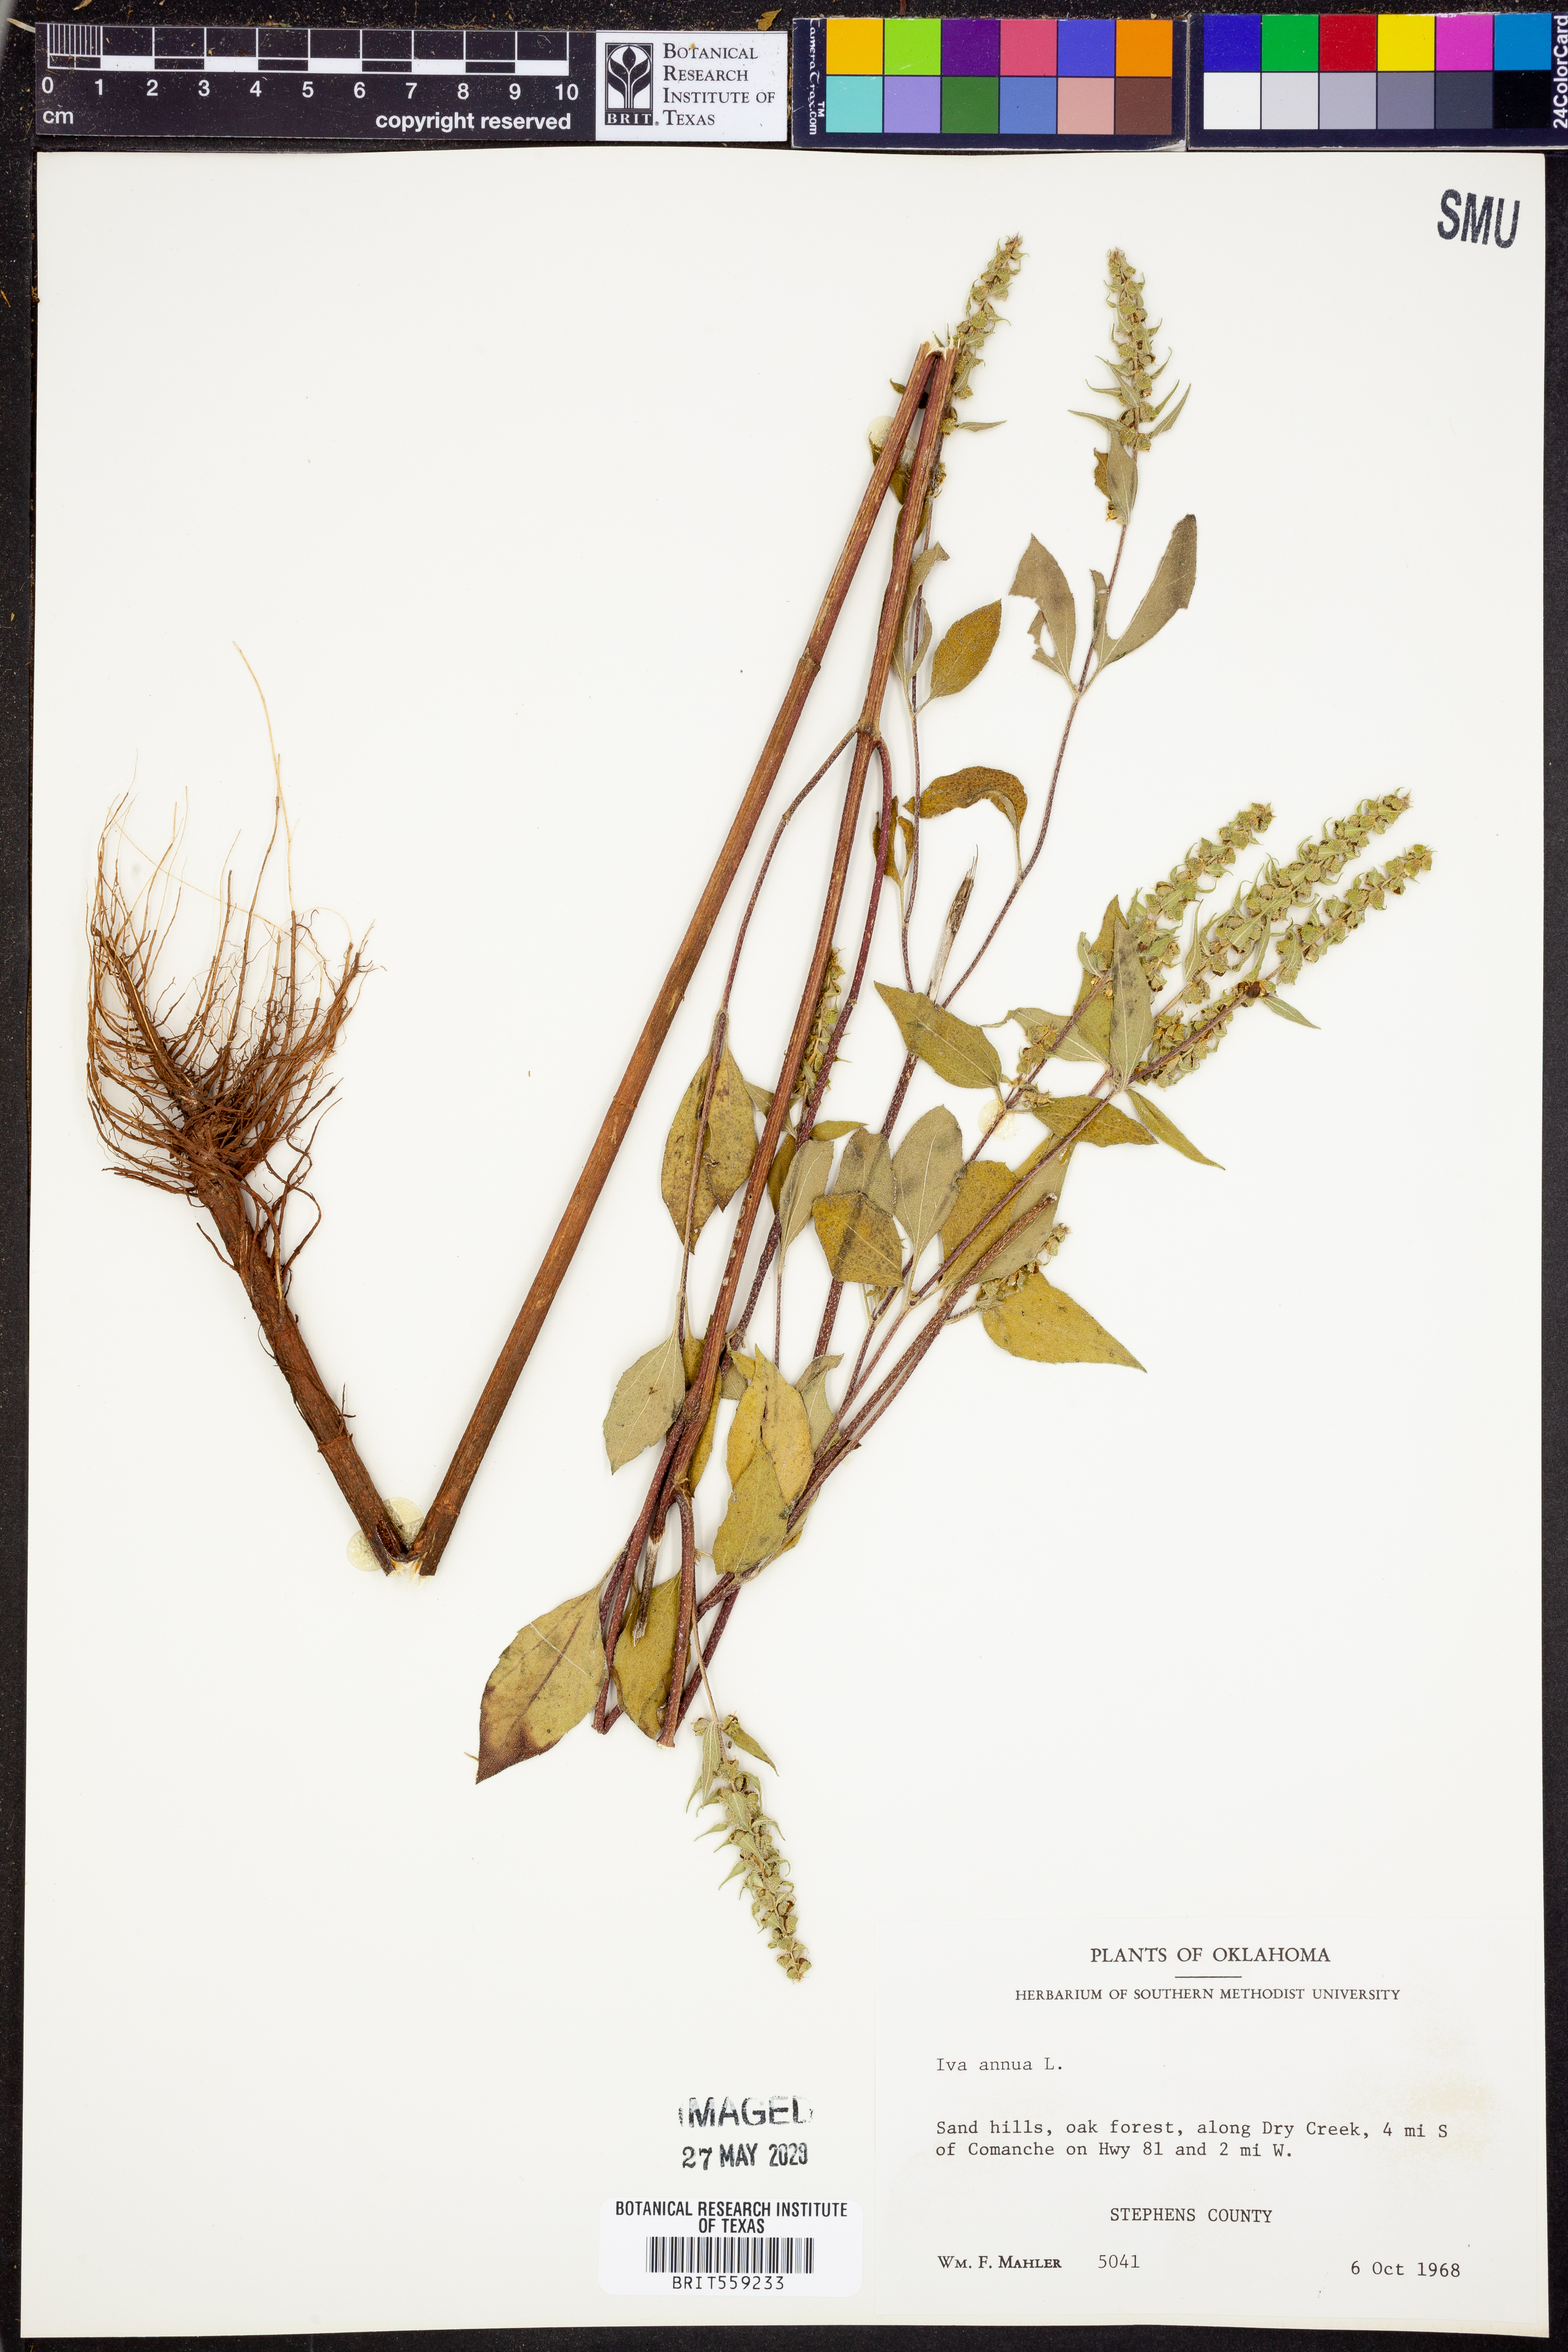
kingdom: Plantae
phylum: Tracheophyta
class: Magnoliopsida
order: Asterales
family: Asteraceae
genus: Iva
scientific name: Iva annua
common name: Marsh-elder
